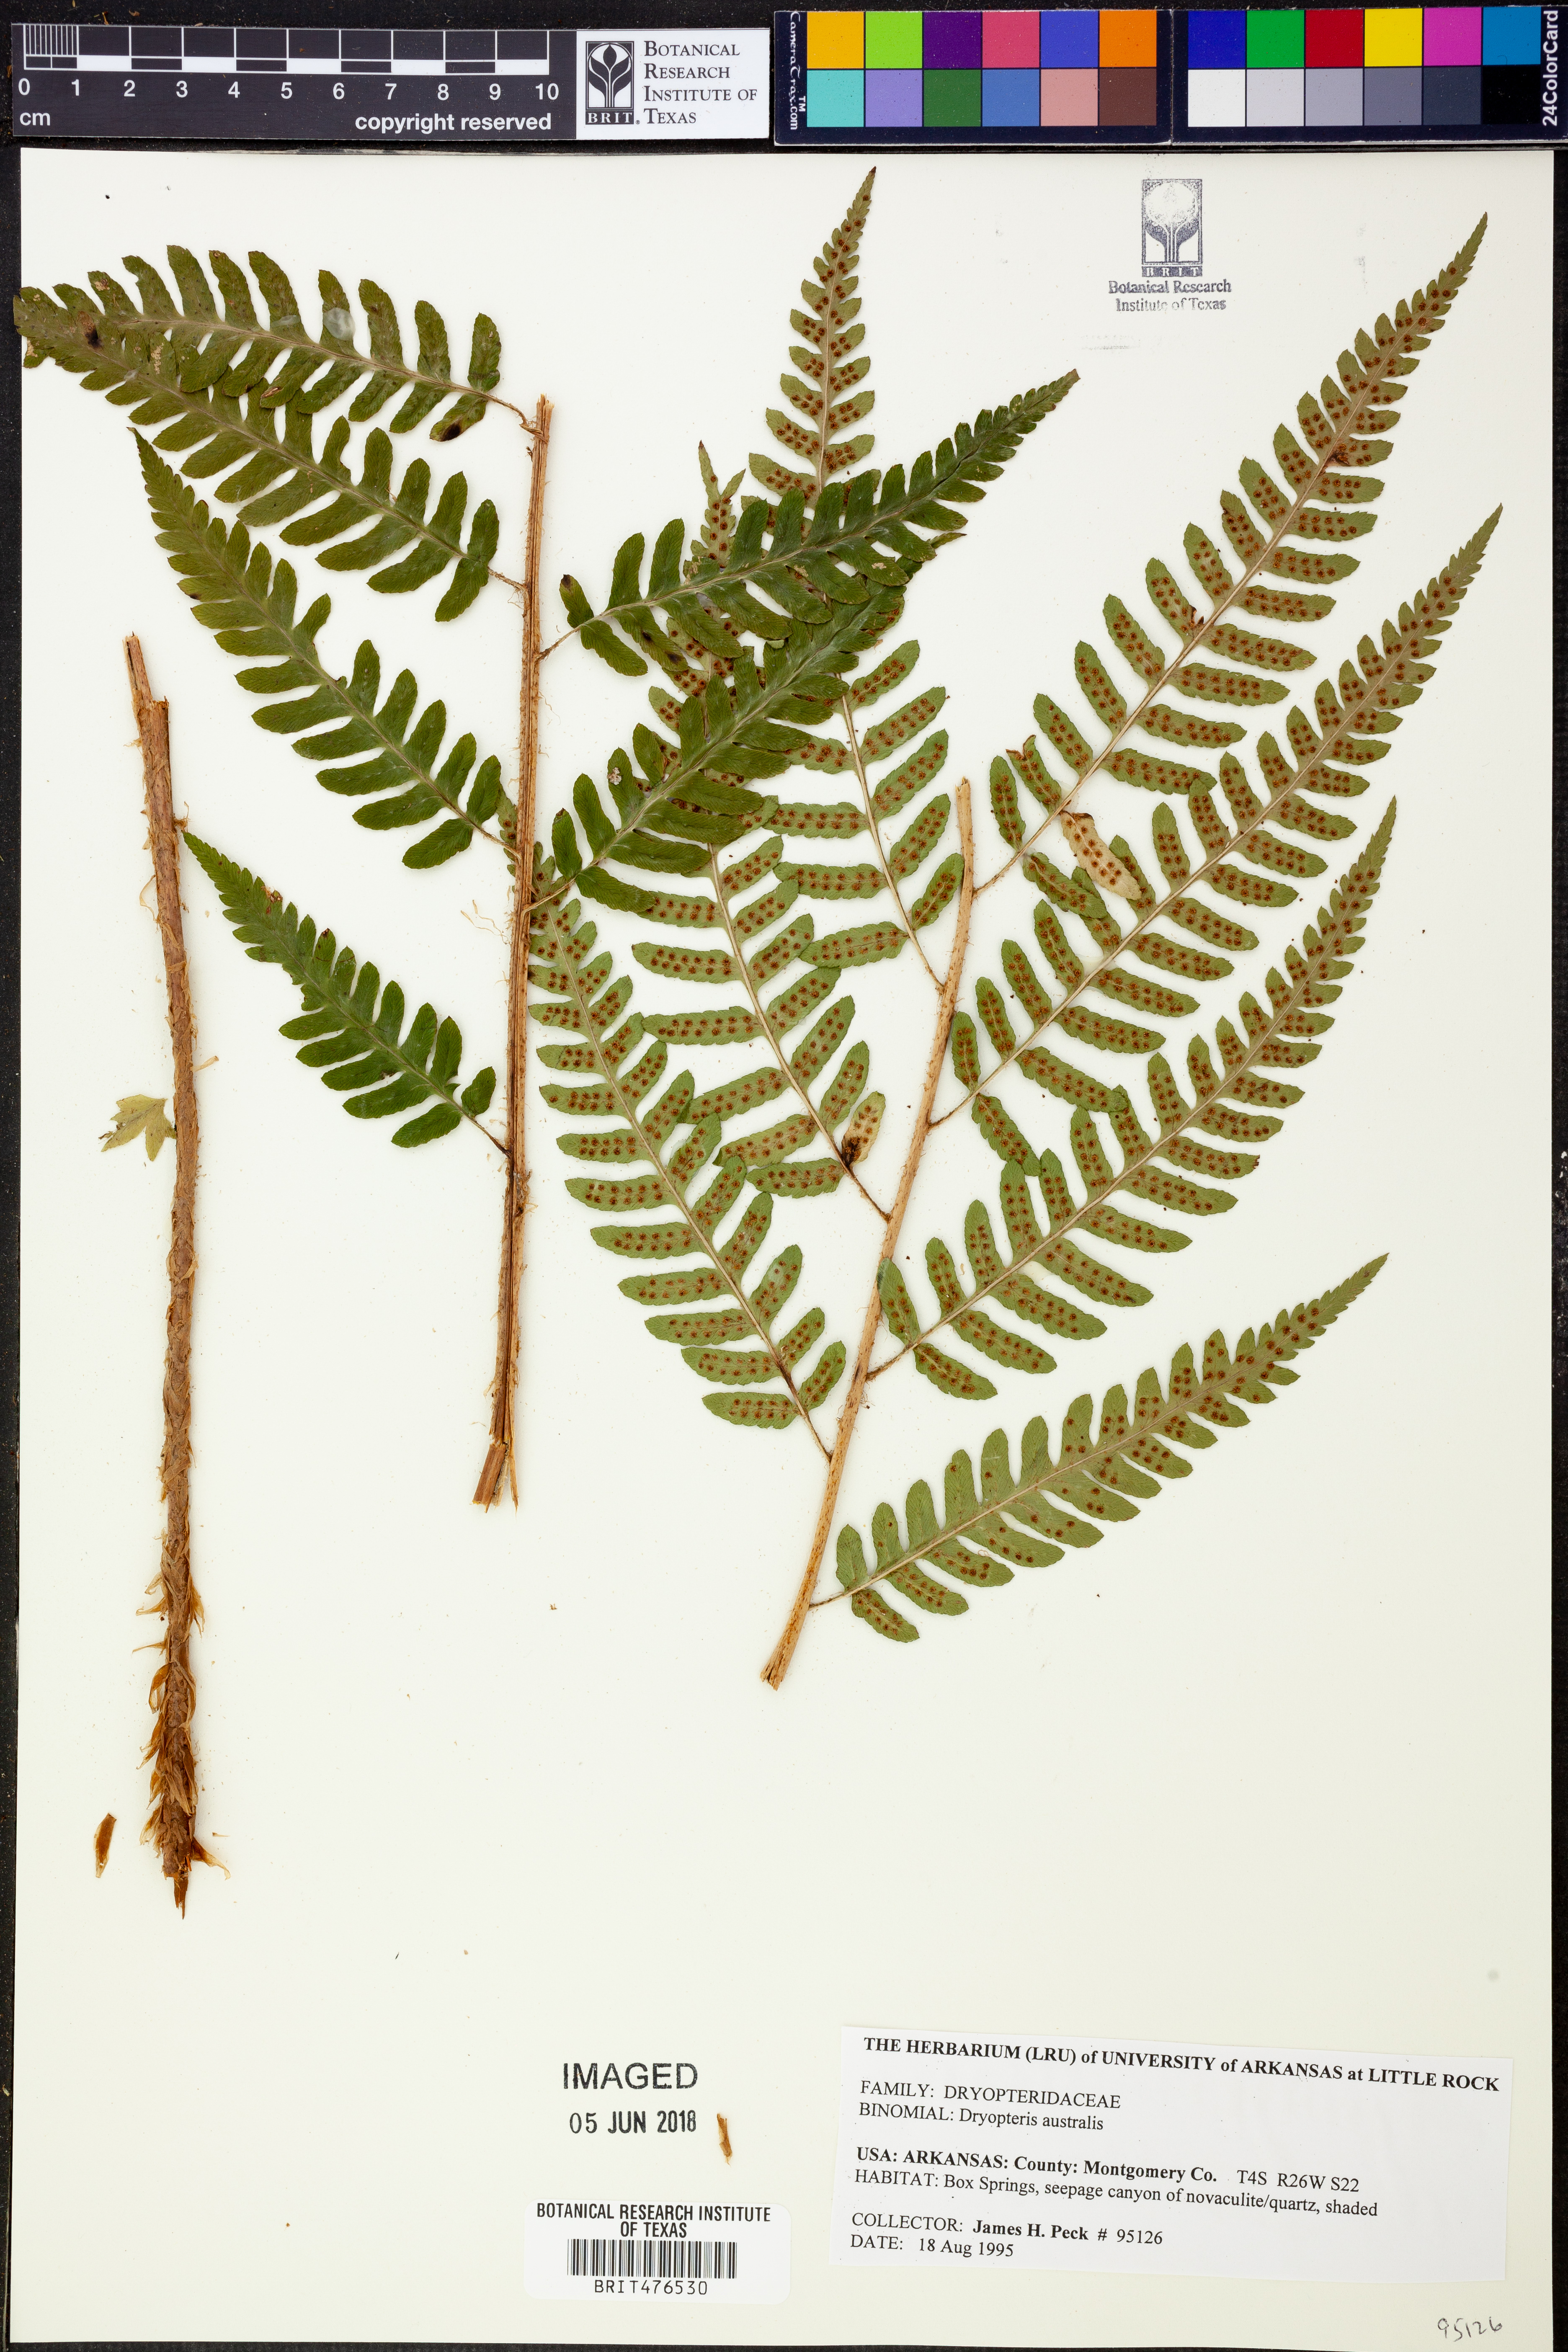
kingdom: Plantae
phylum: Tracheophyta
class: Polypodiopsida
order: Polypodiales
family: Dryopteridaceae
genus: Dryopteris
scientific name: Dryopteris australis
